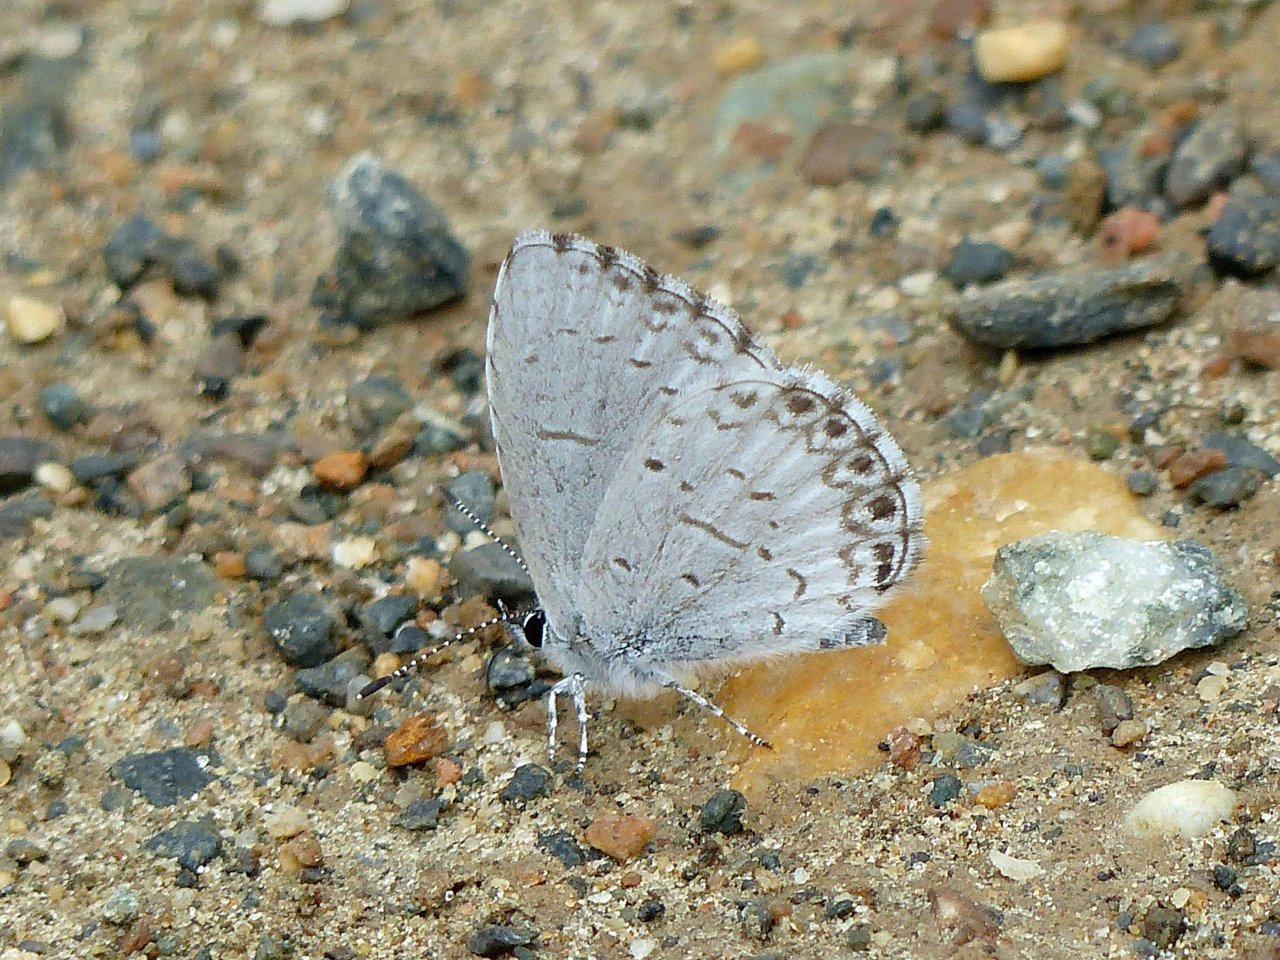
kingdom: Animalia
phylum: Arthropoda
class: Insecta
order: Lepidoptera
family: Lycaenidae
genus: Celastrina
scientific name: Celastrina lucia
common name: Northern Spring Azure
